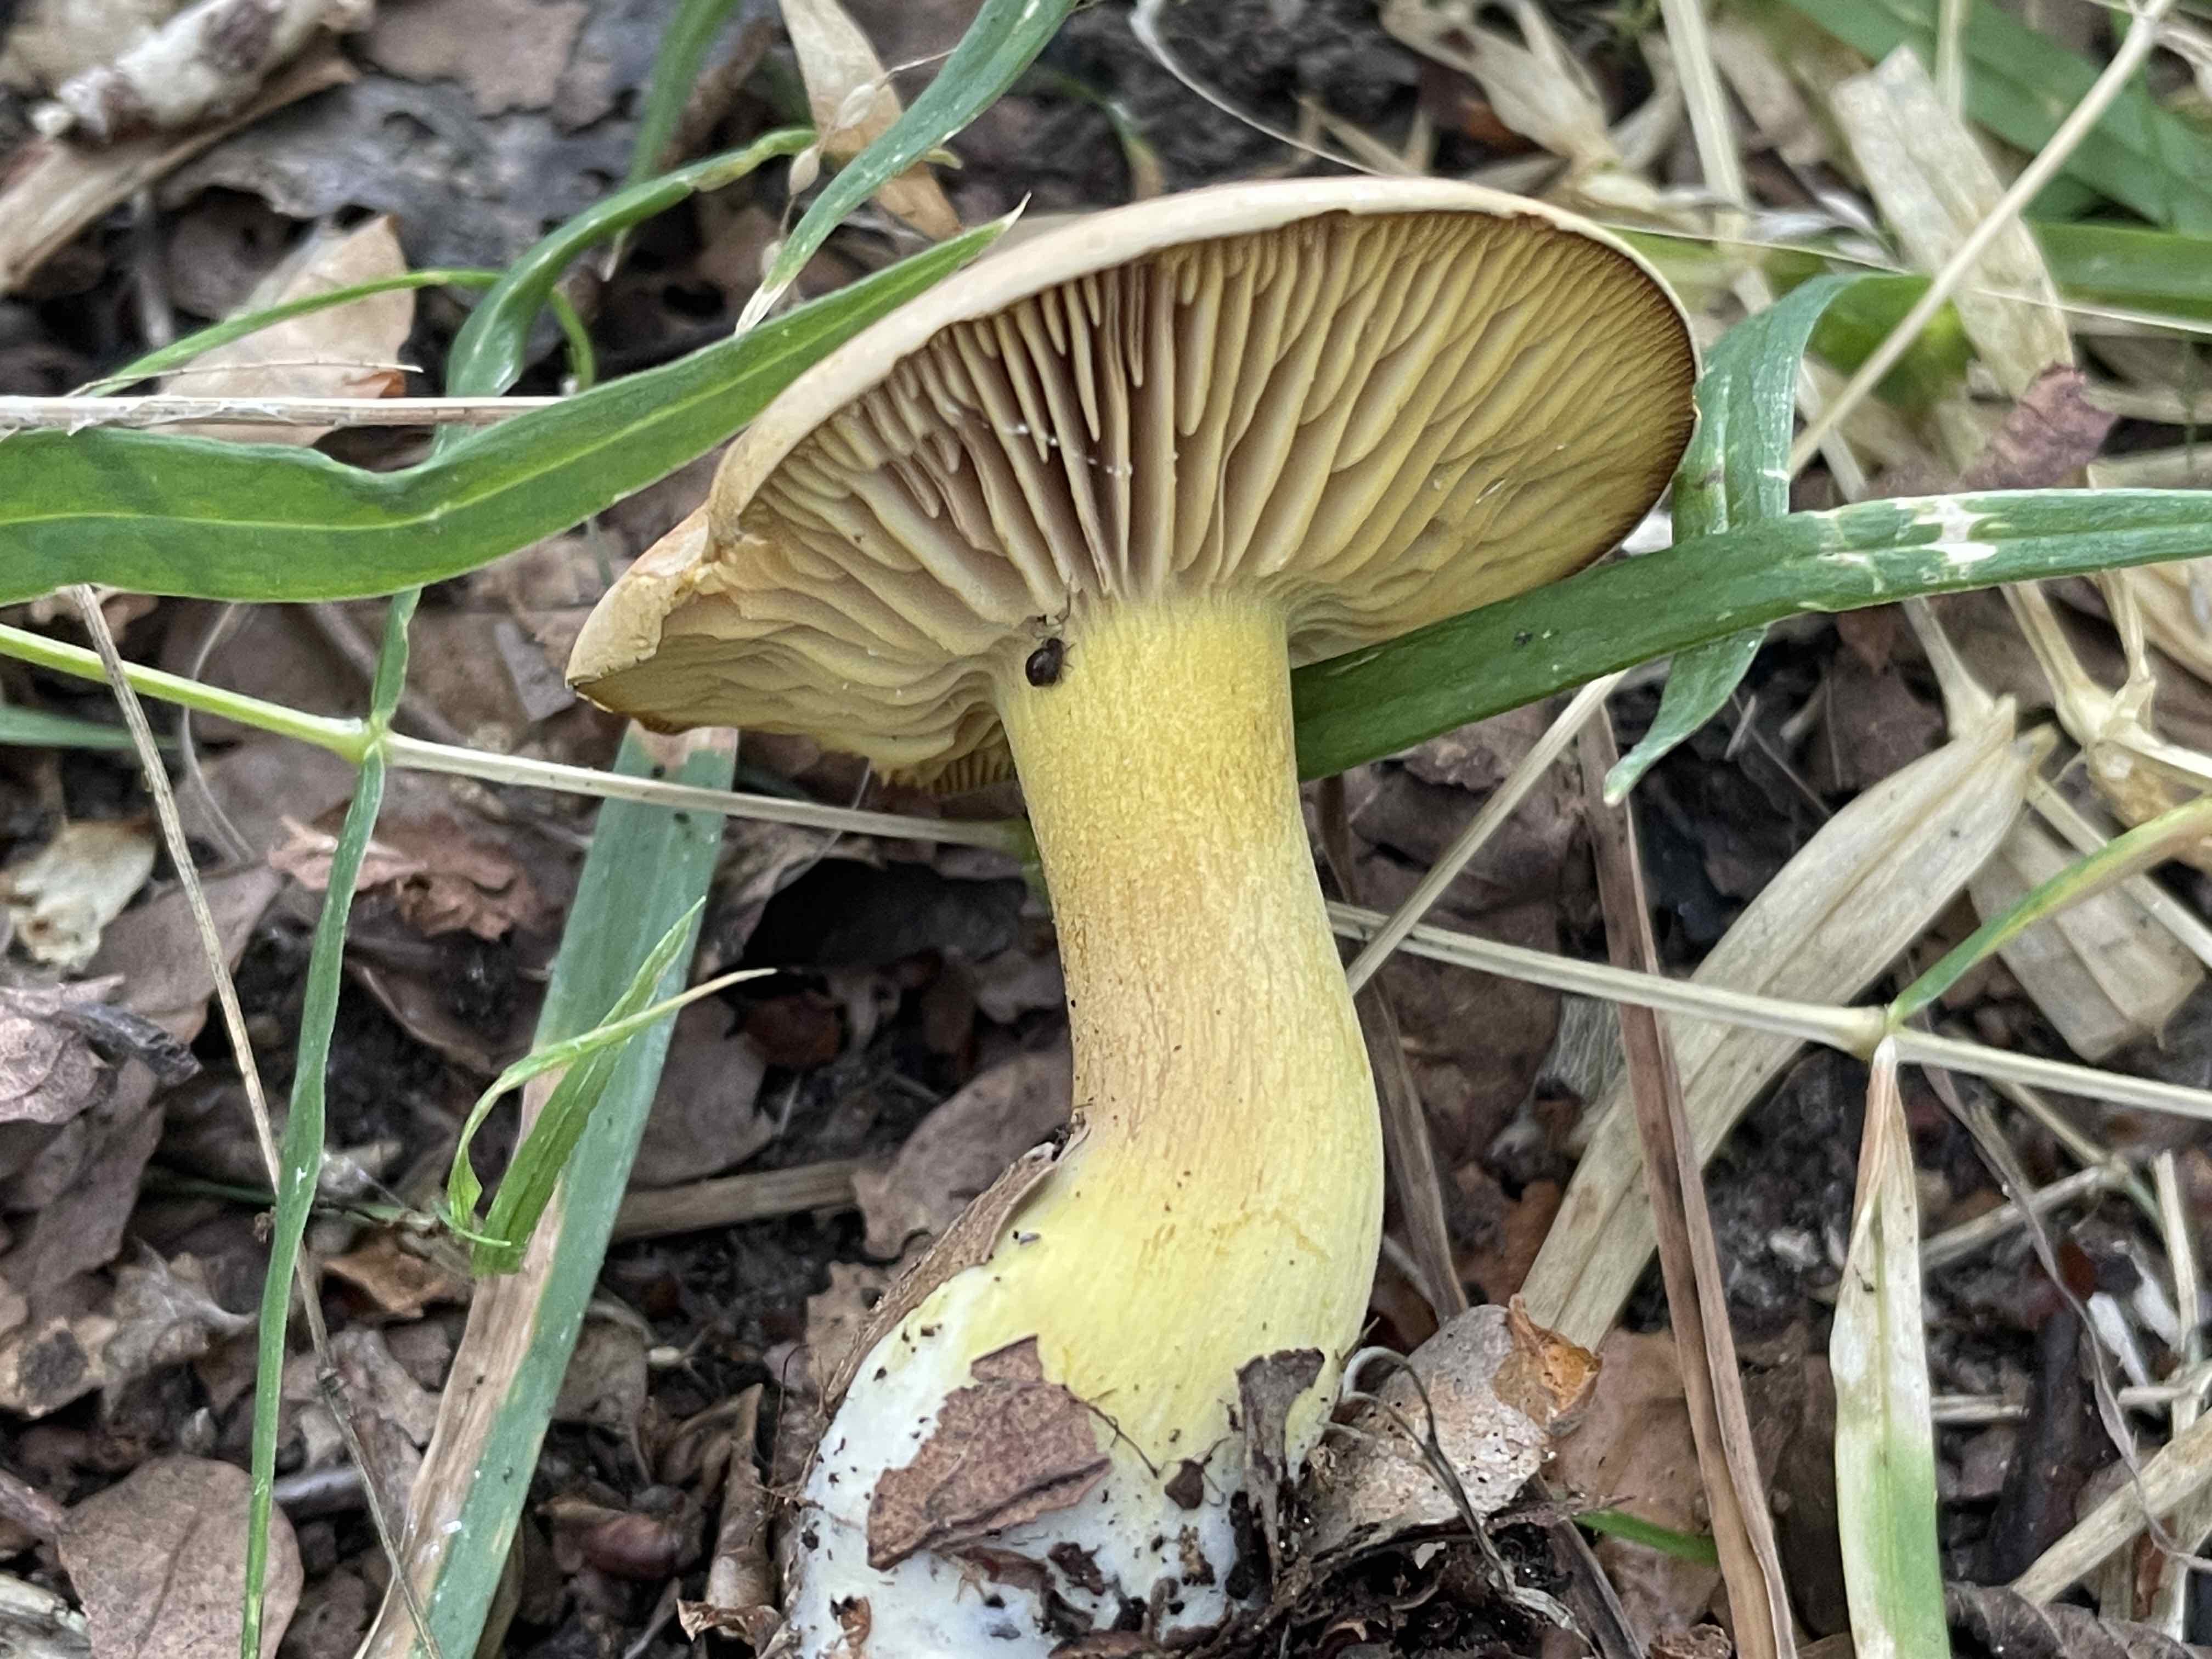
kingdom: Fungi
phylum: Basidiomycota
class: Agaricomycetes
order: Agaricales
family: Tricholomataceae
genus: Tricholoma
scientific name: Tricholoma sulphureum
